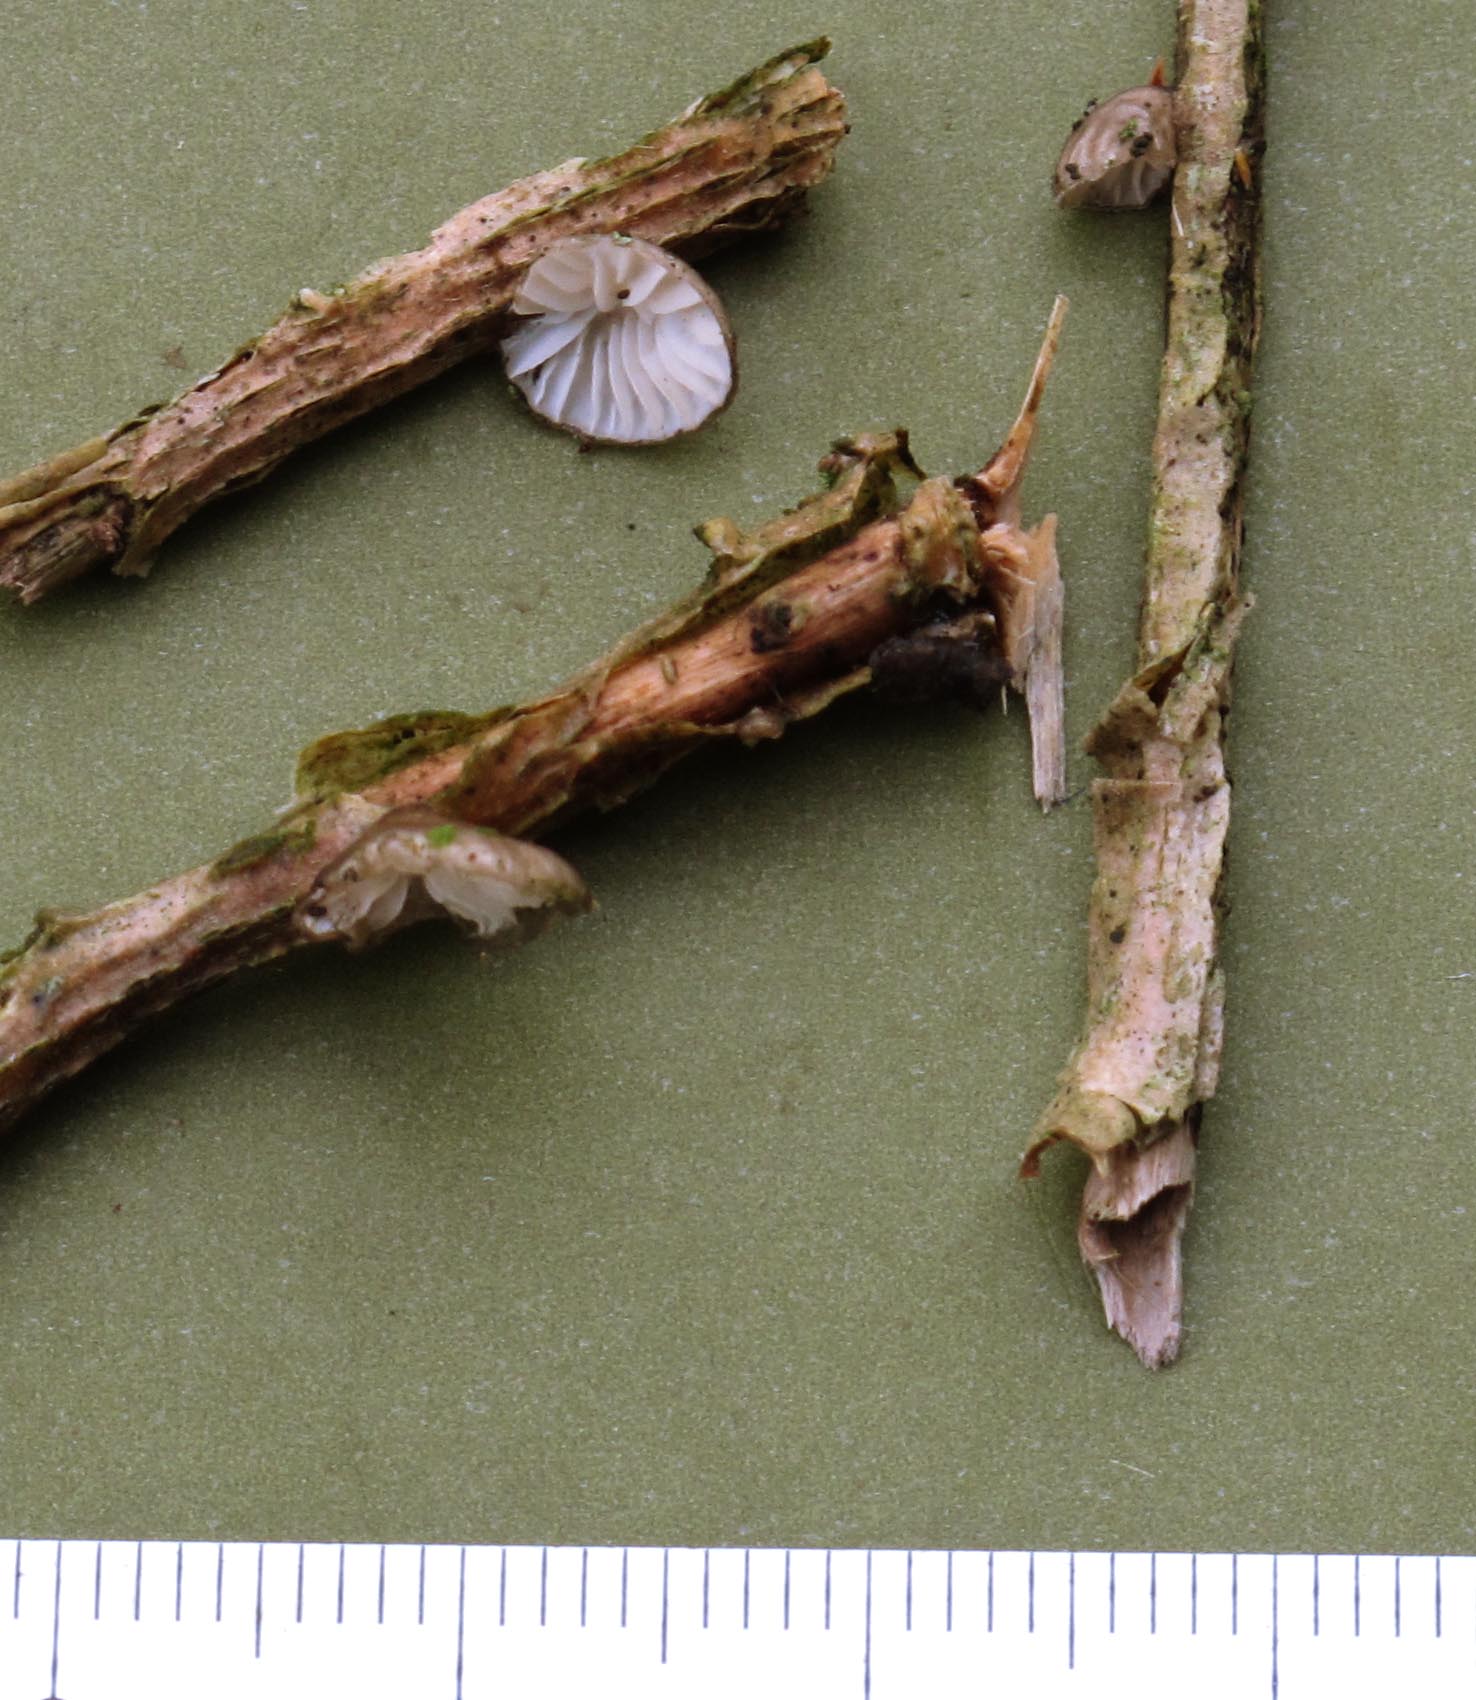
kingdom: Fungi
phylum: Basidiomycota
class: Agaricomycetes
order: Agaricales
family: Pleurotaceae
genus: Hohenbuehelia
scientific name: Hohenbuehelia cyphelliformis
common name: urte-filthat
